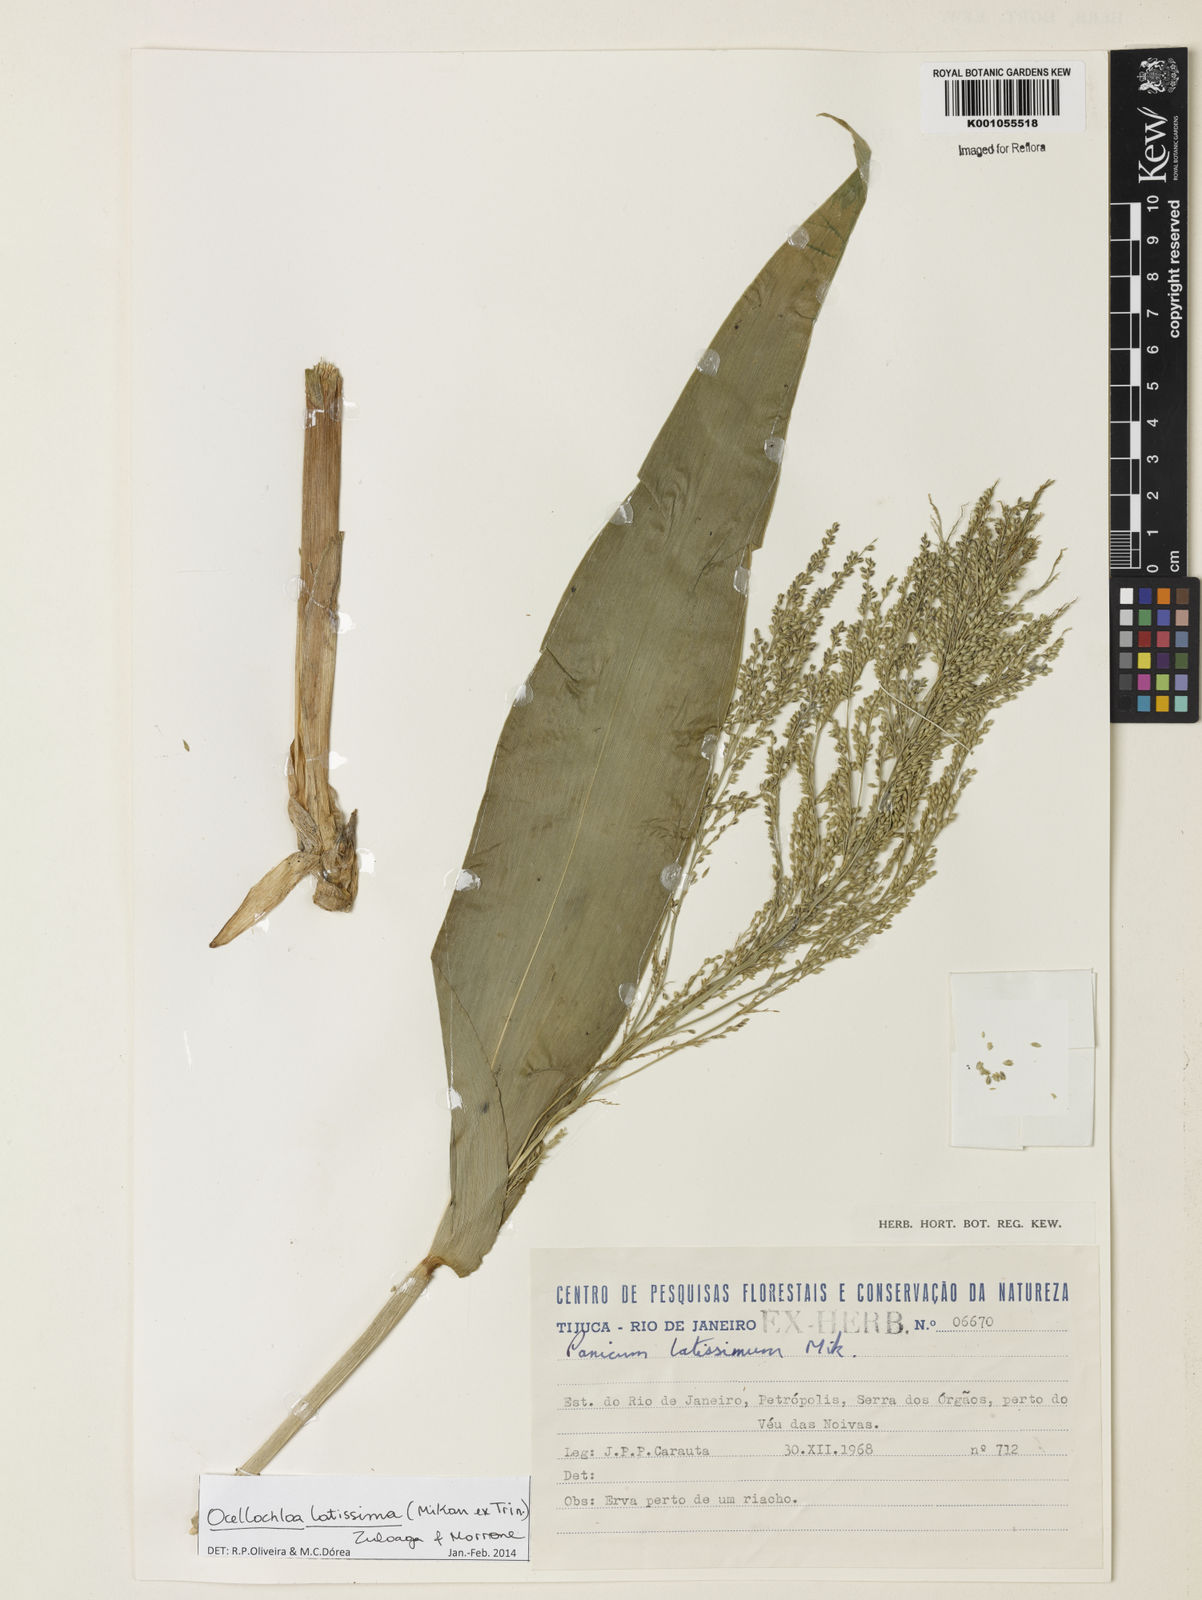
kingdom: Plantae
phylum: Tracheophyta
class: Liliopsida
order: Poales
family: Poaceae
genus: Ocellochloa
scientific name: Ocellochloa latissima
